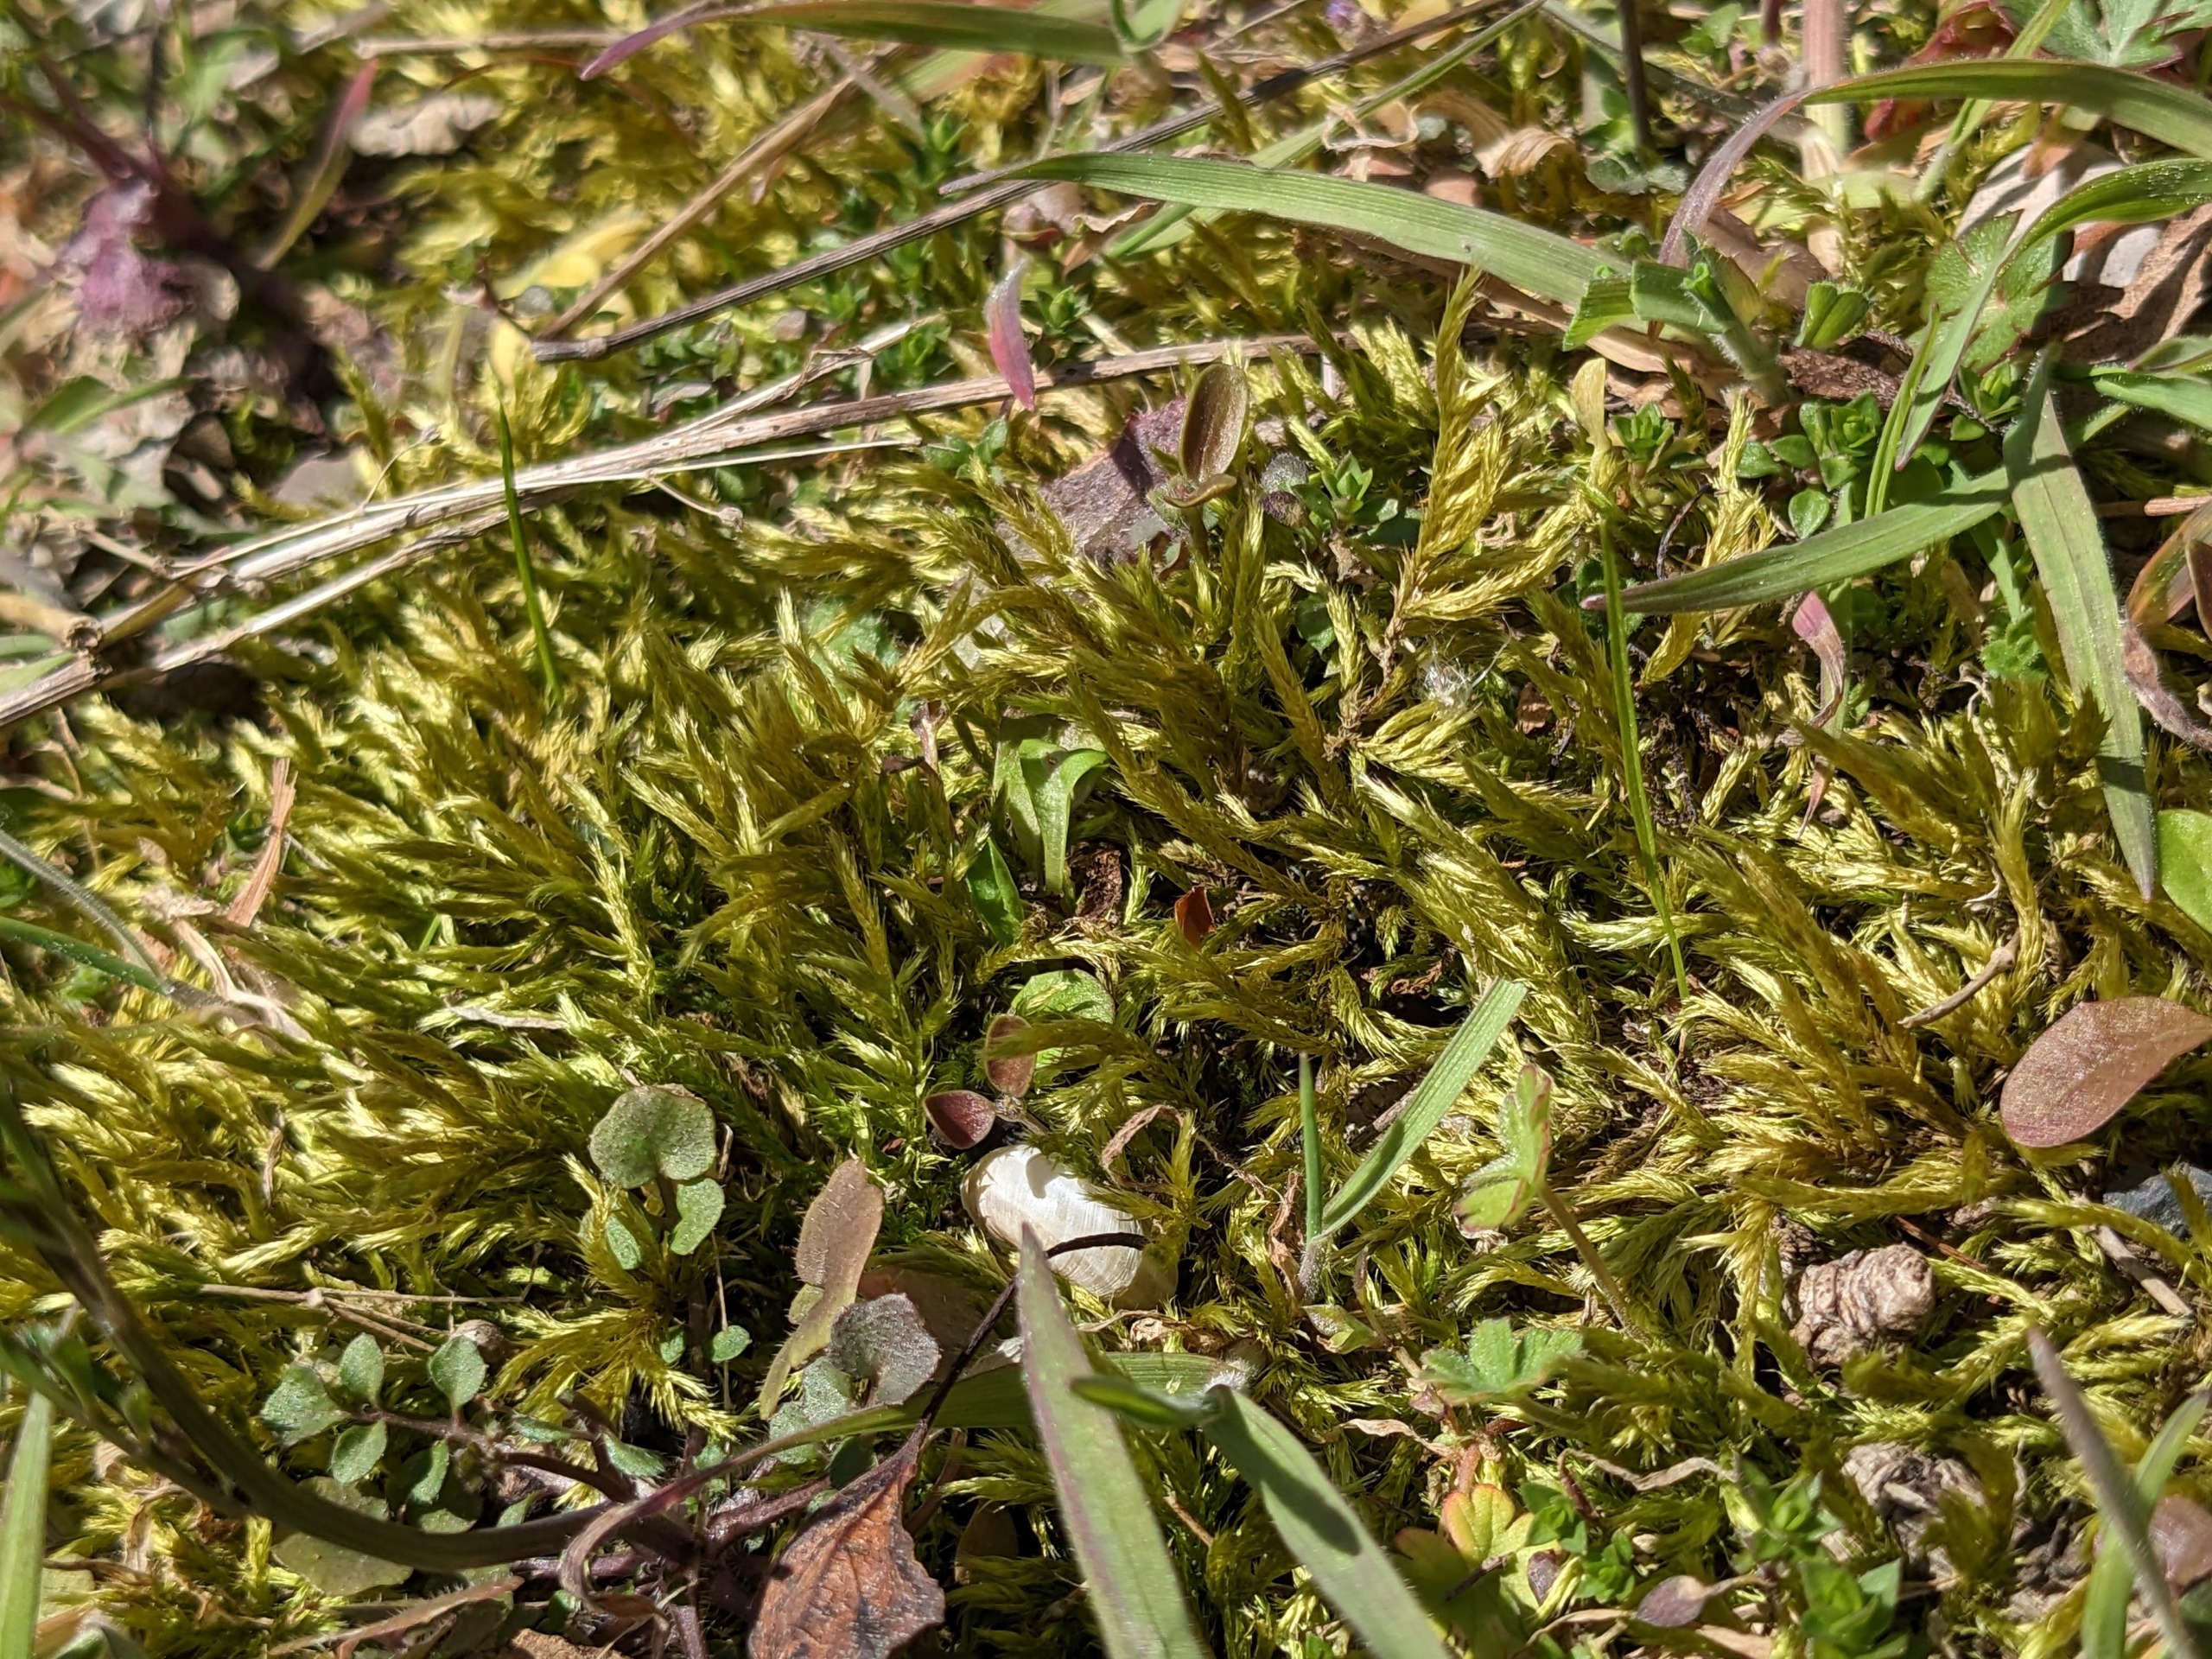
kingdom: Plantae
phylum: Bryophyta
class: Bryopsida
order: Hypnales
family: Brachytheciaceae
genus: Homalothecium
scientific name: Homalothecium lutescens
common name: Gul krumkapsel
